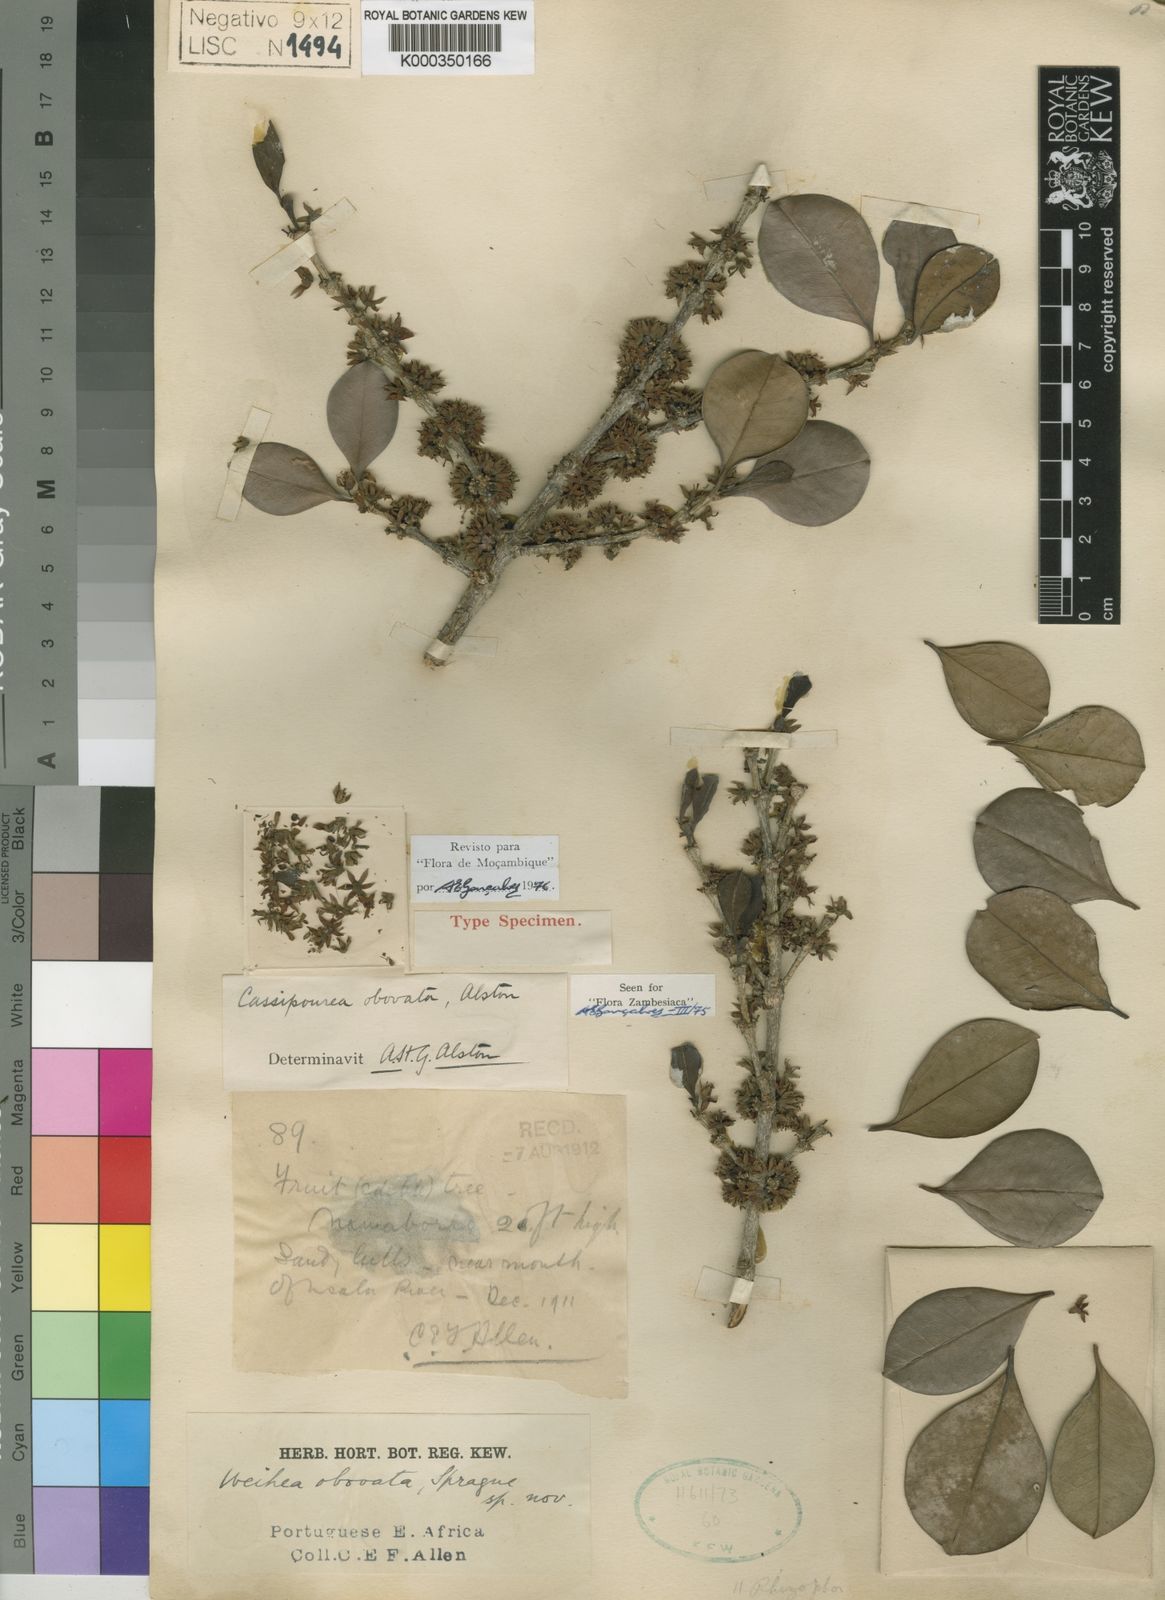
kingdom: Plantae
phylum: Tracheophyta
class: Magnoliopsida
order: Malpighiales
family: Rhizophoraceae
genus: Cassipourea
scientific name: Cassipourea obovata
